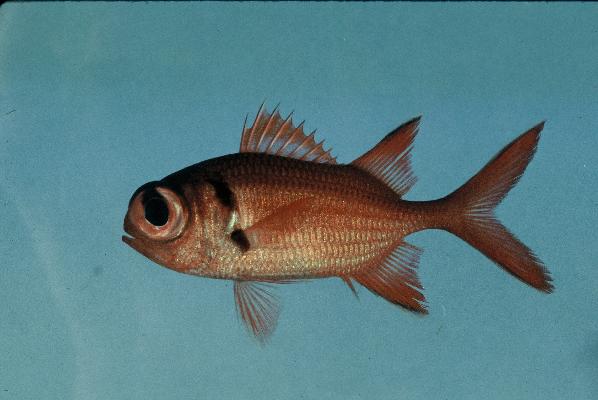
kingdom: Animalia
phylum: Chordata
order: Beryciformes
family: Holocentridae
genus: Myripristis
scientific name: Myripristis pralinia
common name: Big eye soldierfish
